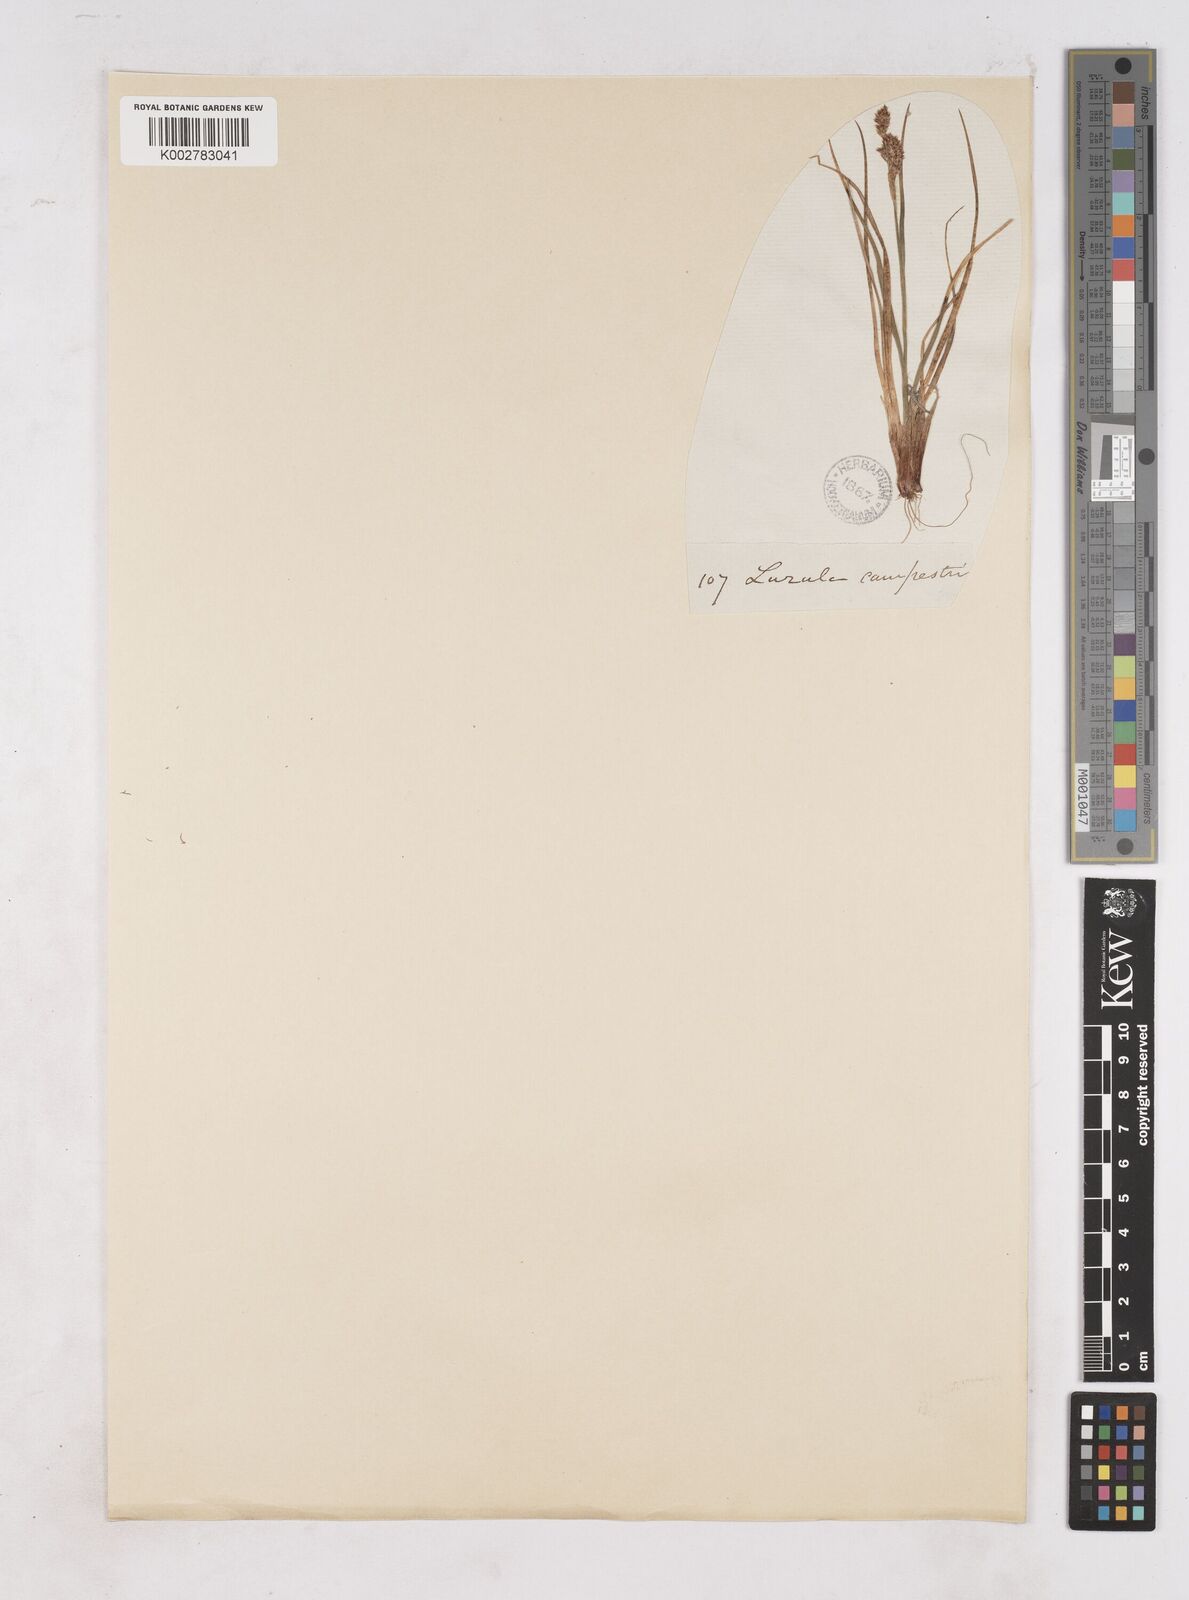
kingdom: Plantae
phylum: Tracheophyta
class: Liliopsida
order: Poales
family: Juncaceae
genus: Luzula
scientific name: Luzula campestris
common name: Field wood-rush
